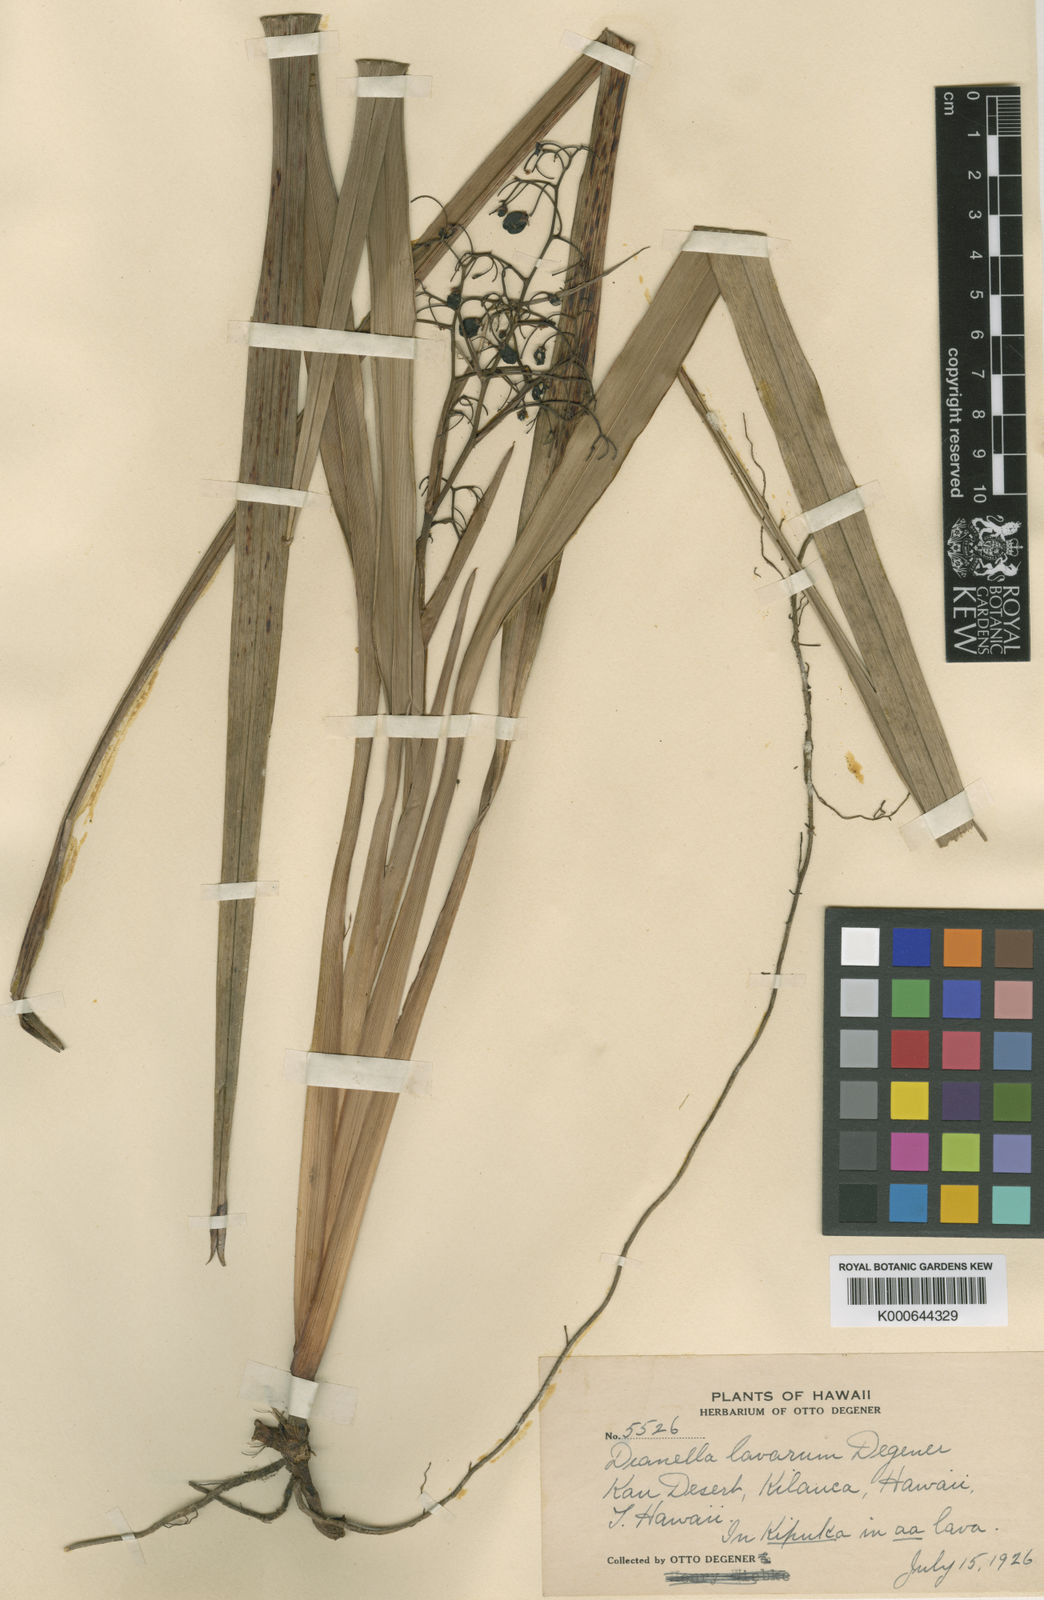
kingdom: Plantae
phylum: Tracheophyta
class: Liliopsida
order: Asparagales
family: Asphodelaceae
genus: Dianella
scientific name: Dianella sandwicensis
